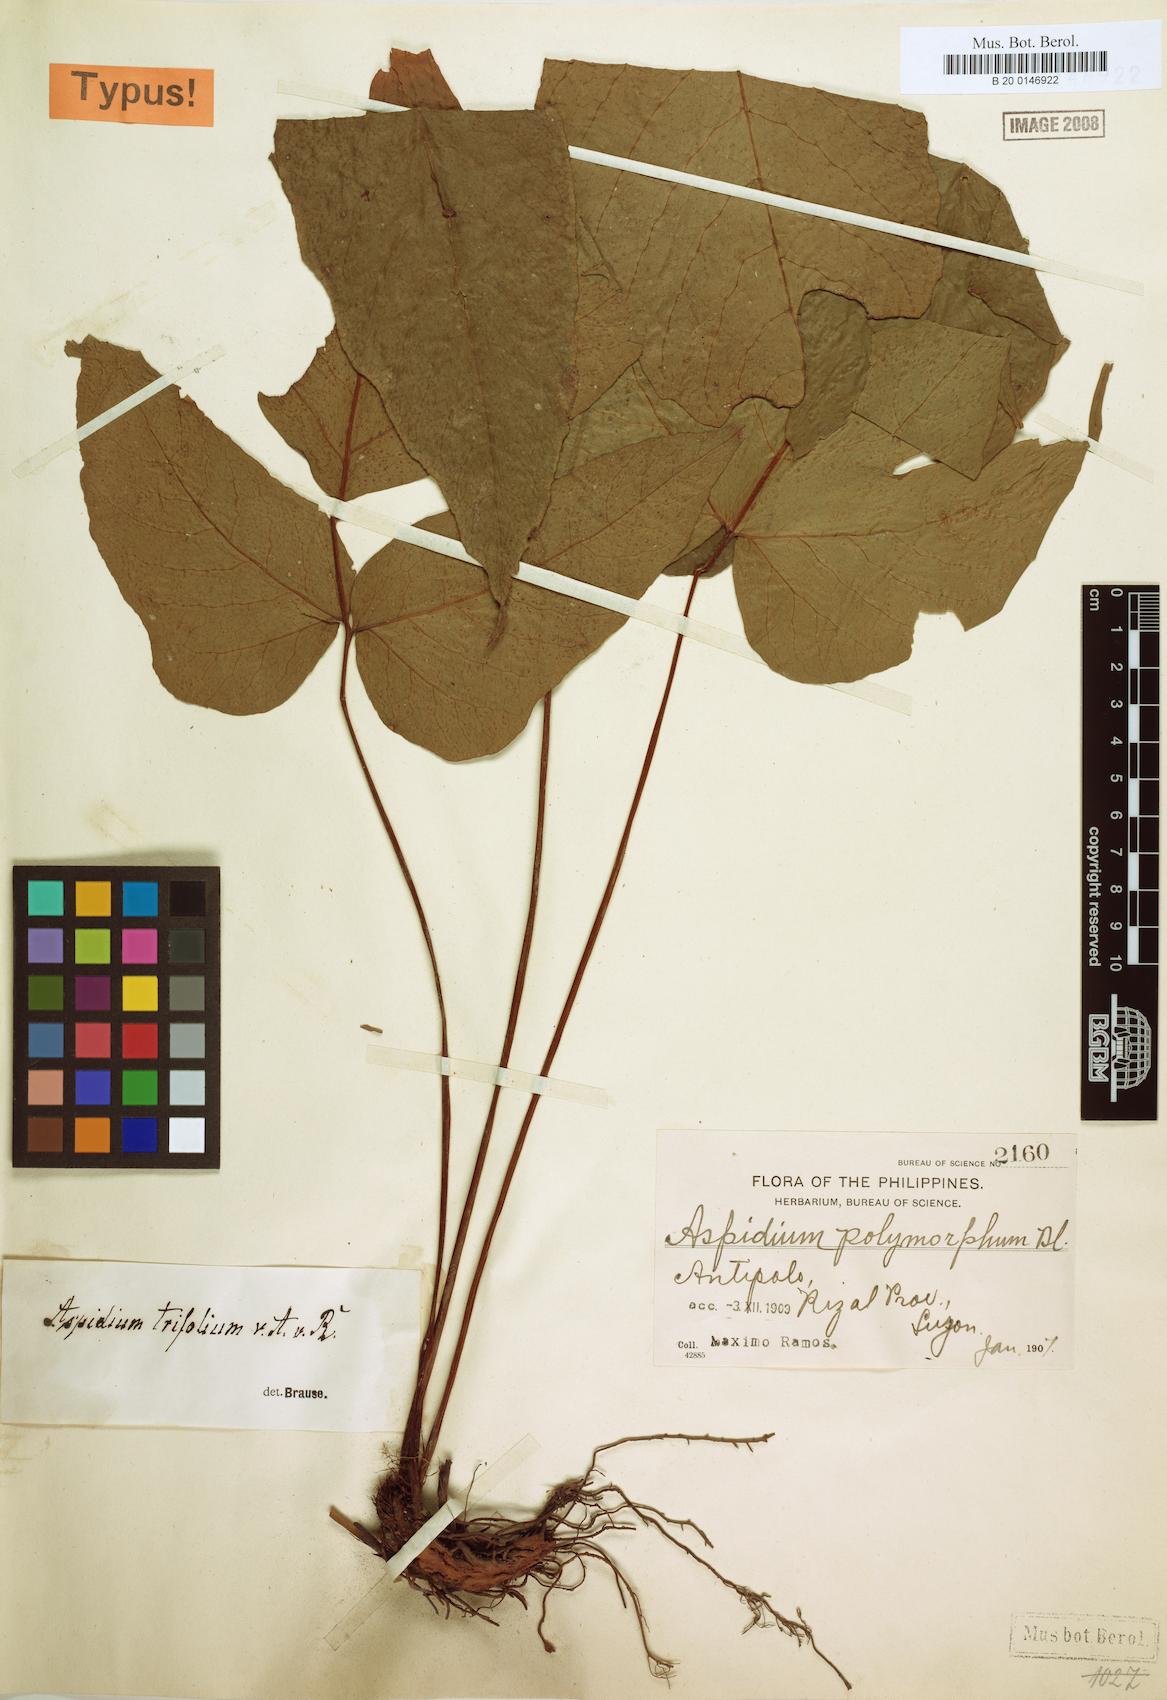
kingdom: Plantae
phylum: Tracheophyta
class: Polypodiopsida
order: Polypodiales
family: Tectariaceae
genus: Tectaria
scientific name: Tectaria angulata
